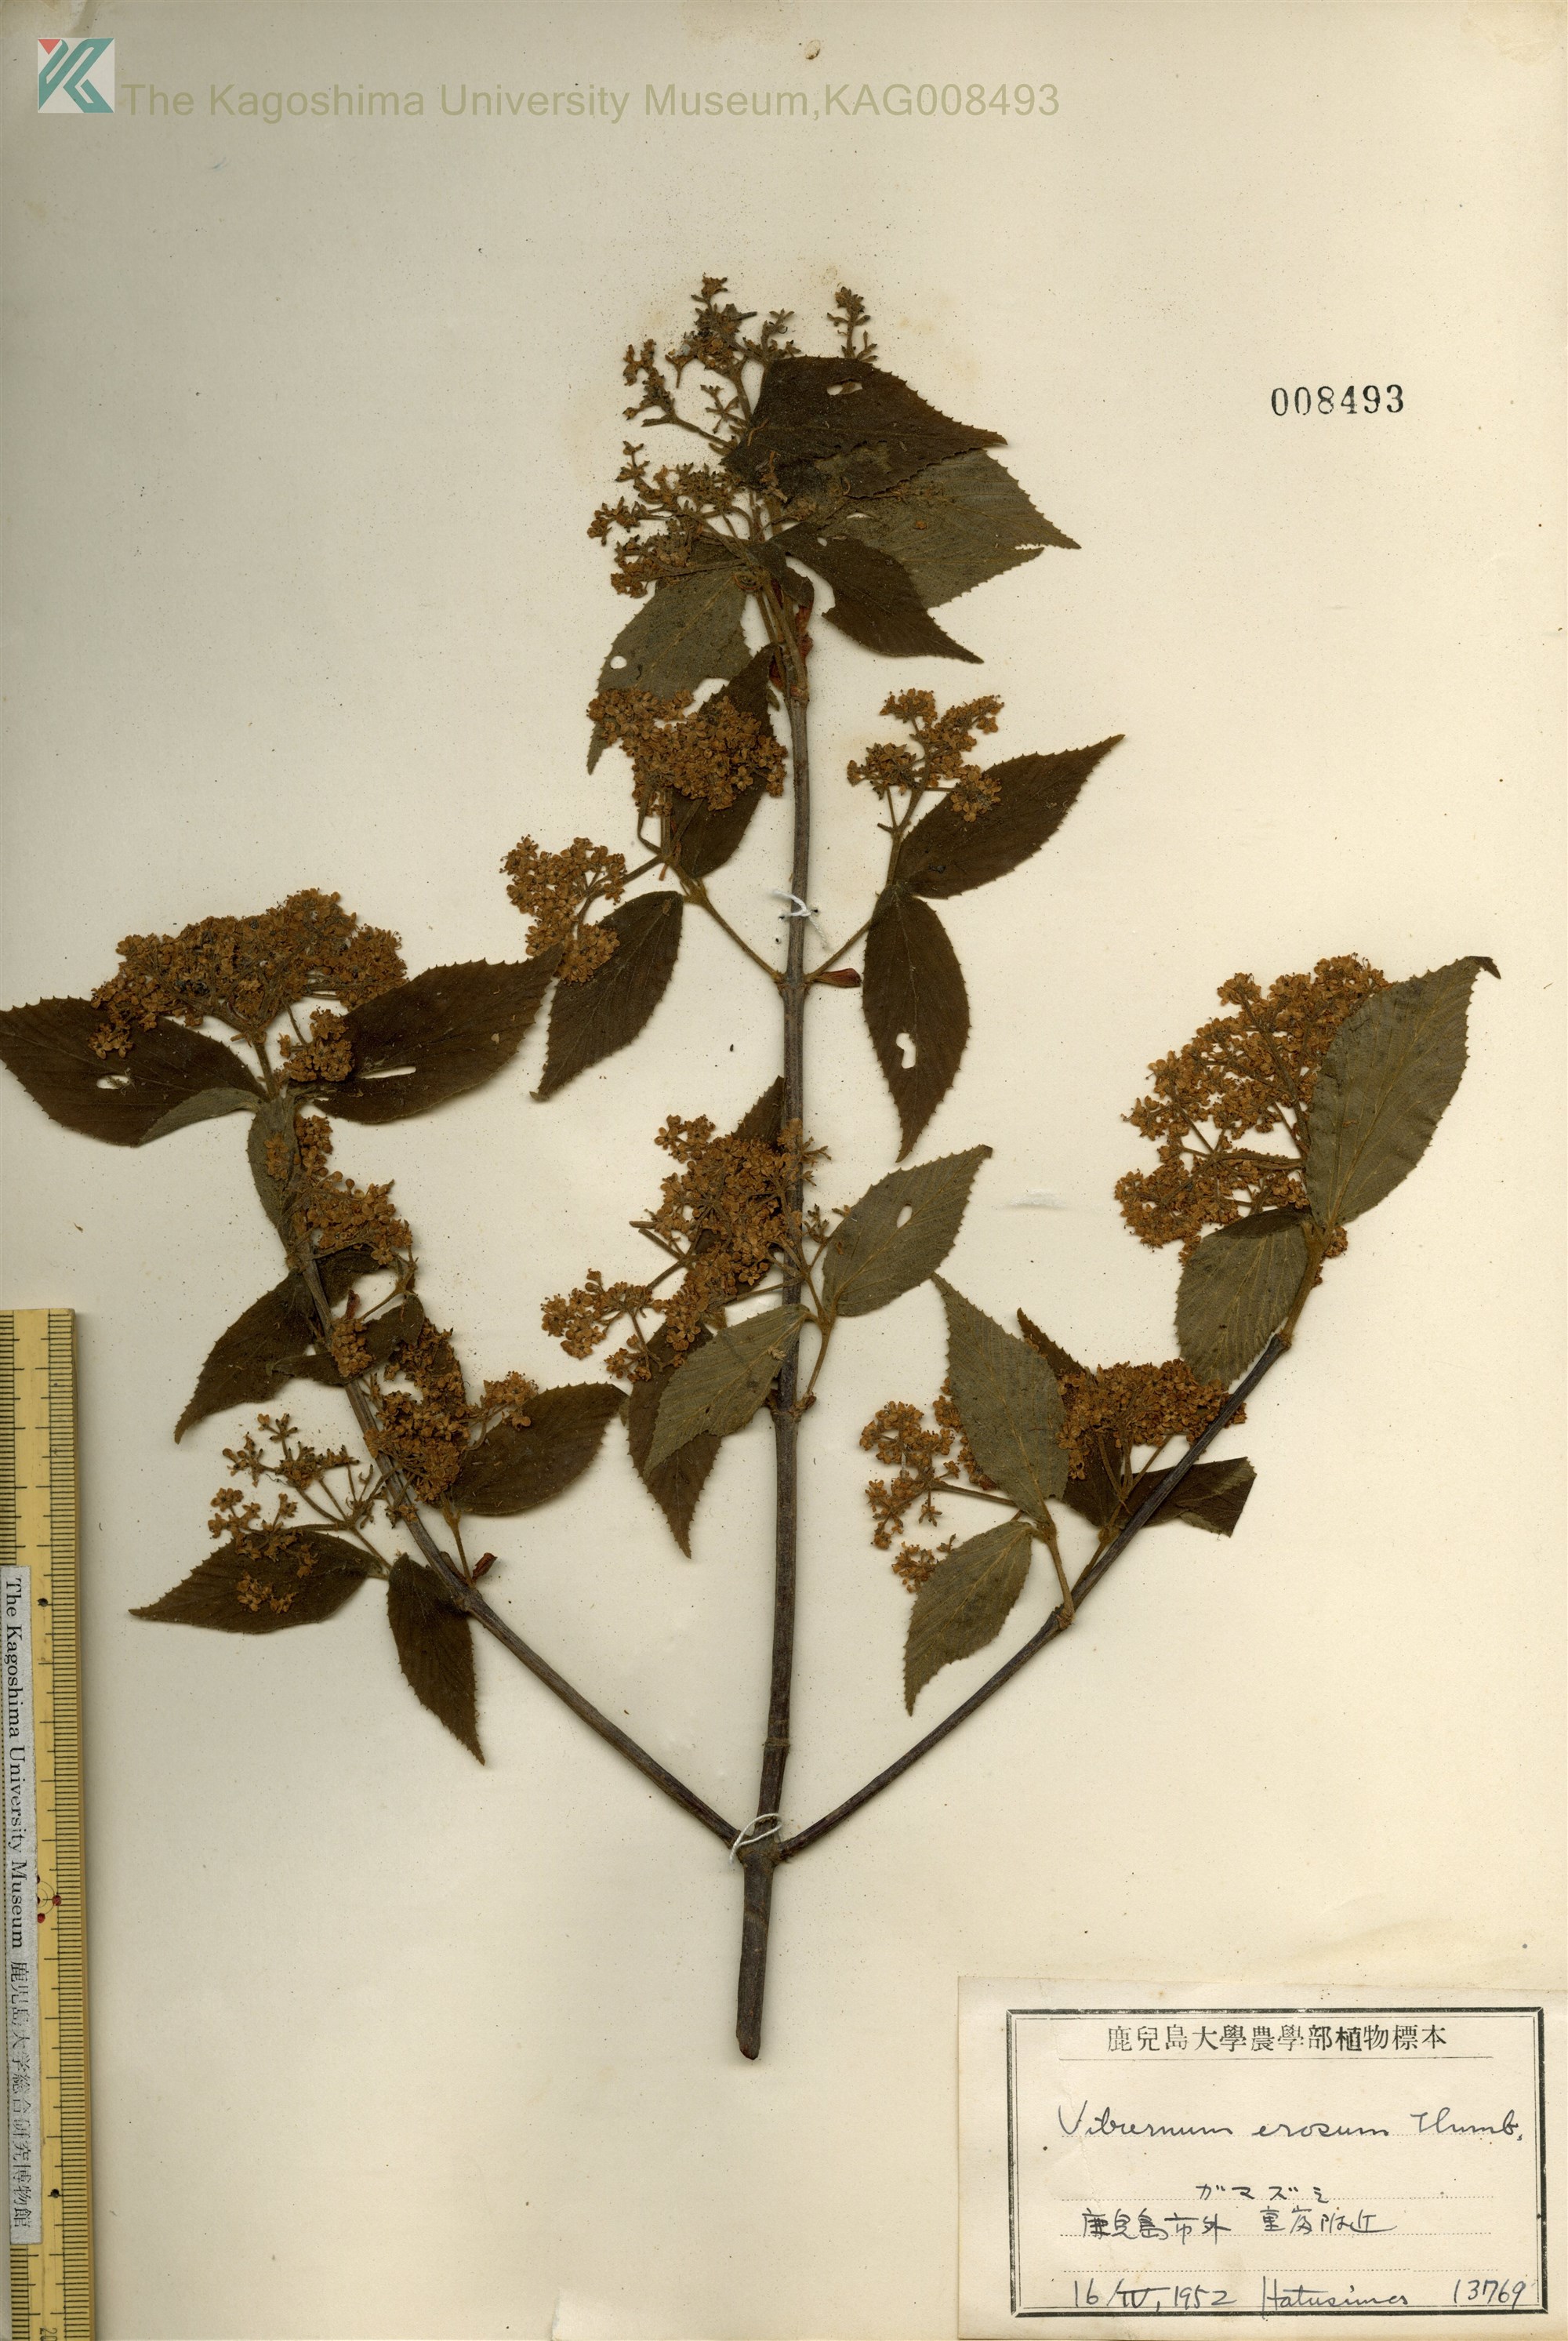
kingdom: Plantae
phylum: Tracheophyta
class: Magnoliopsida
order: Dipsacales
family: Viburnaceae
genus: Viburnum
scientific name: Viburnum erosum
